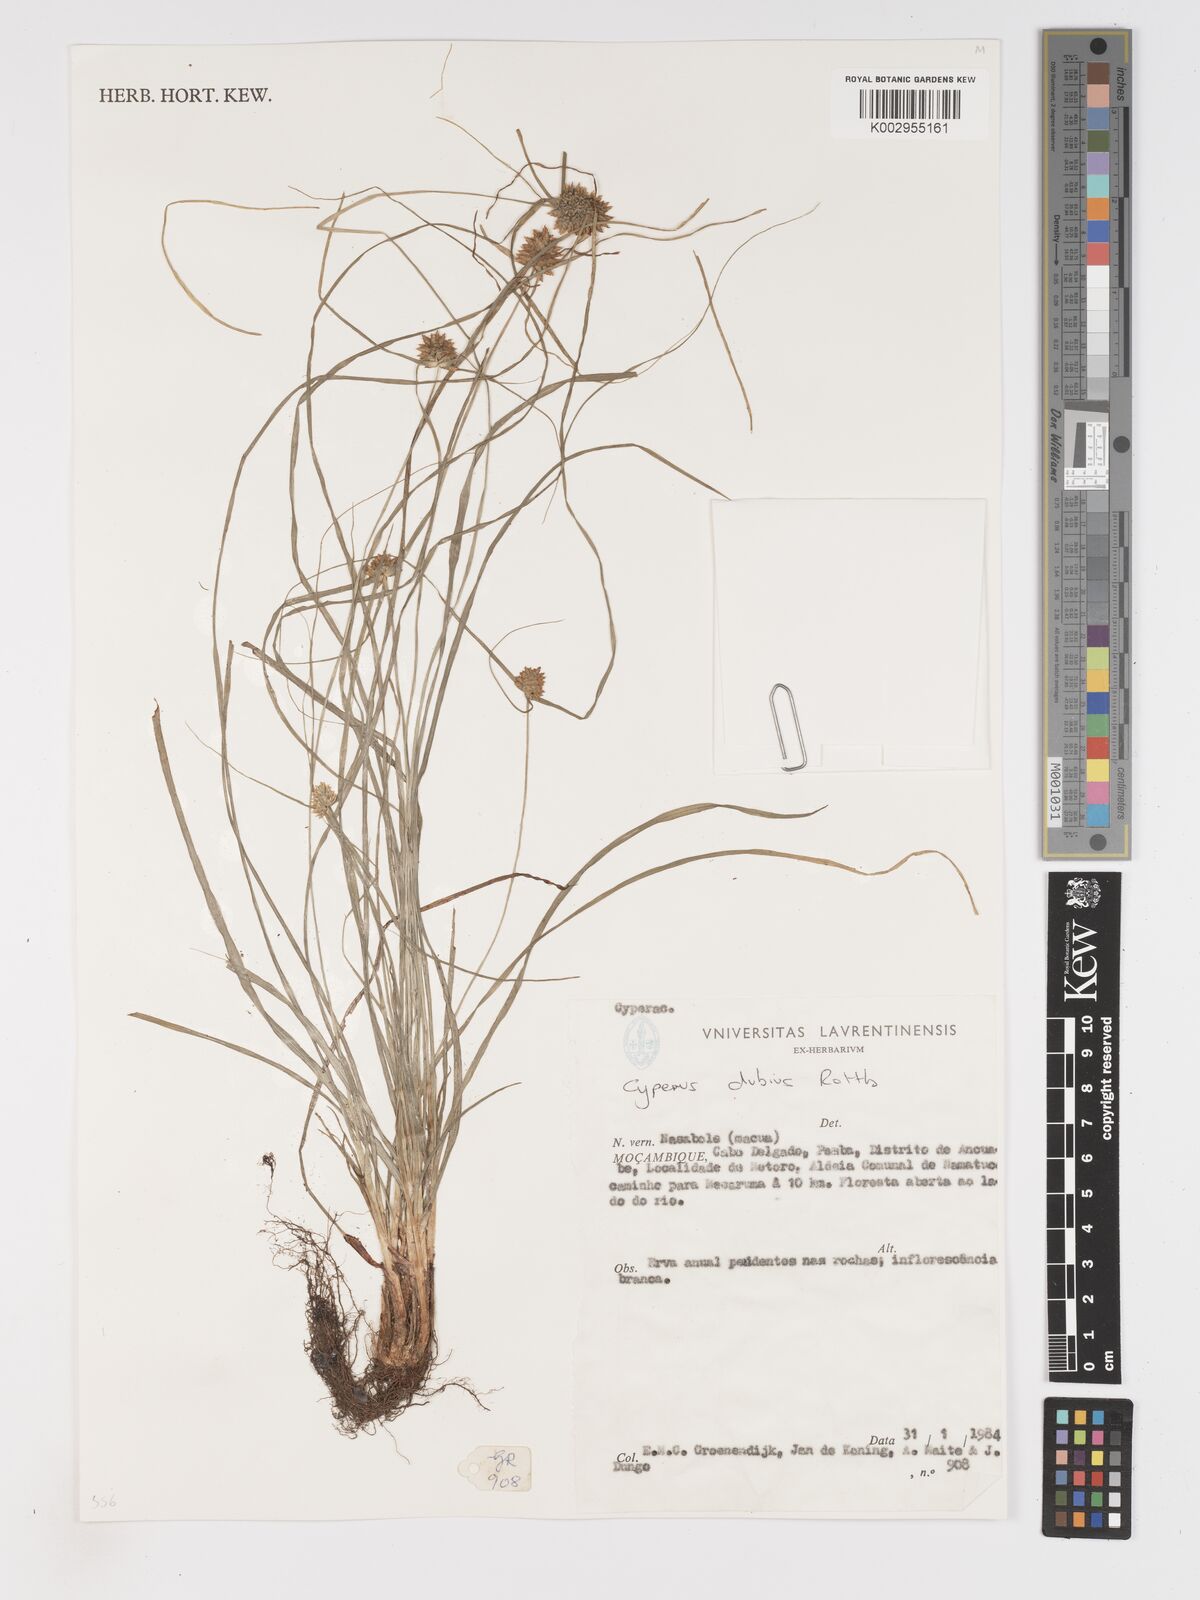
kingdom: Plantae
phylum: Tracheophyta
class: Liliopsida
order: Poales
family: Cyperaceae
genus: Cyperus
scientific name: Cyperus dubius
